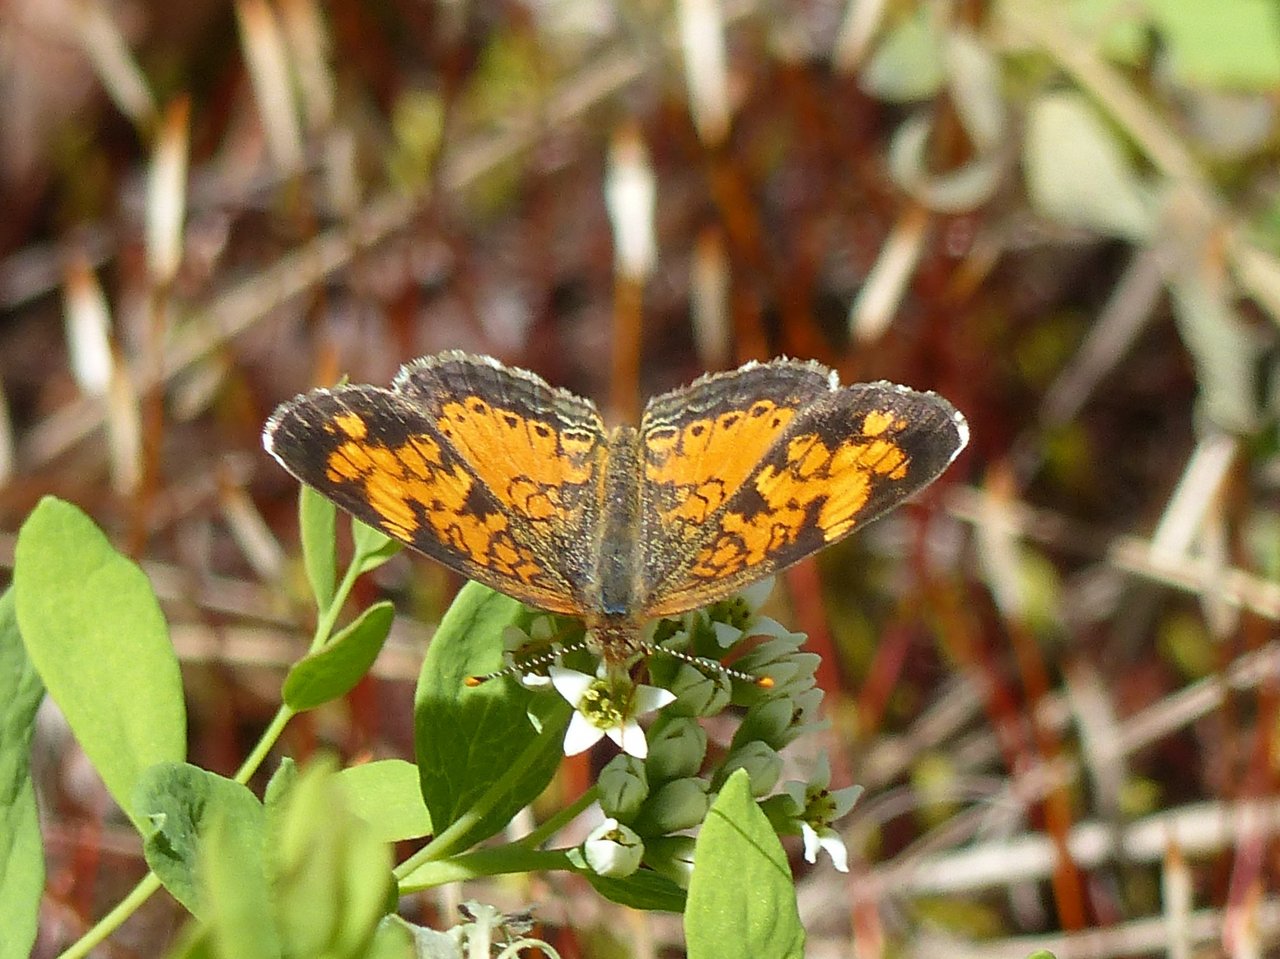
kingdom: Animalia
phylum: Arthropoda
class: Insecta
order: Lepidoptera
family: Nymphalidae
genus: Phyciodes
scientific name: Phyciodes tharos
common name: Northern Crescent
